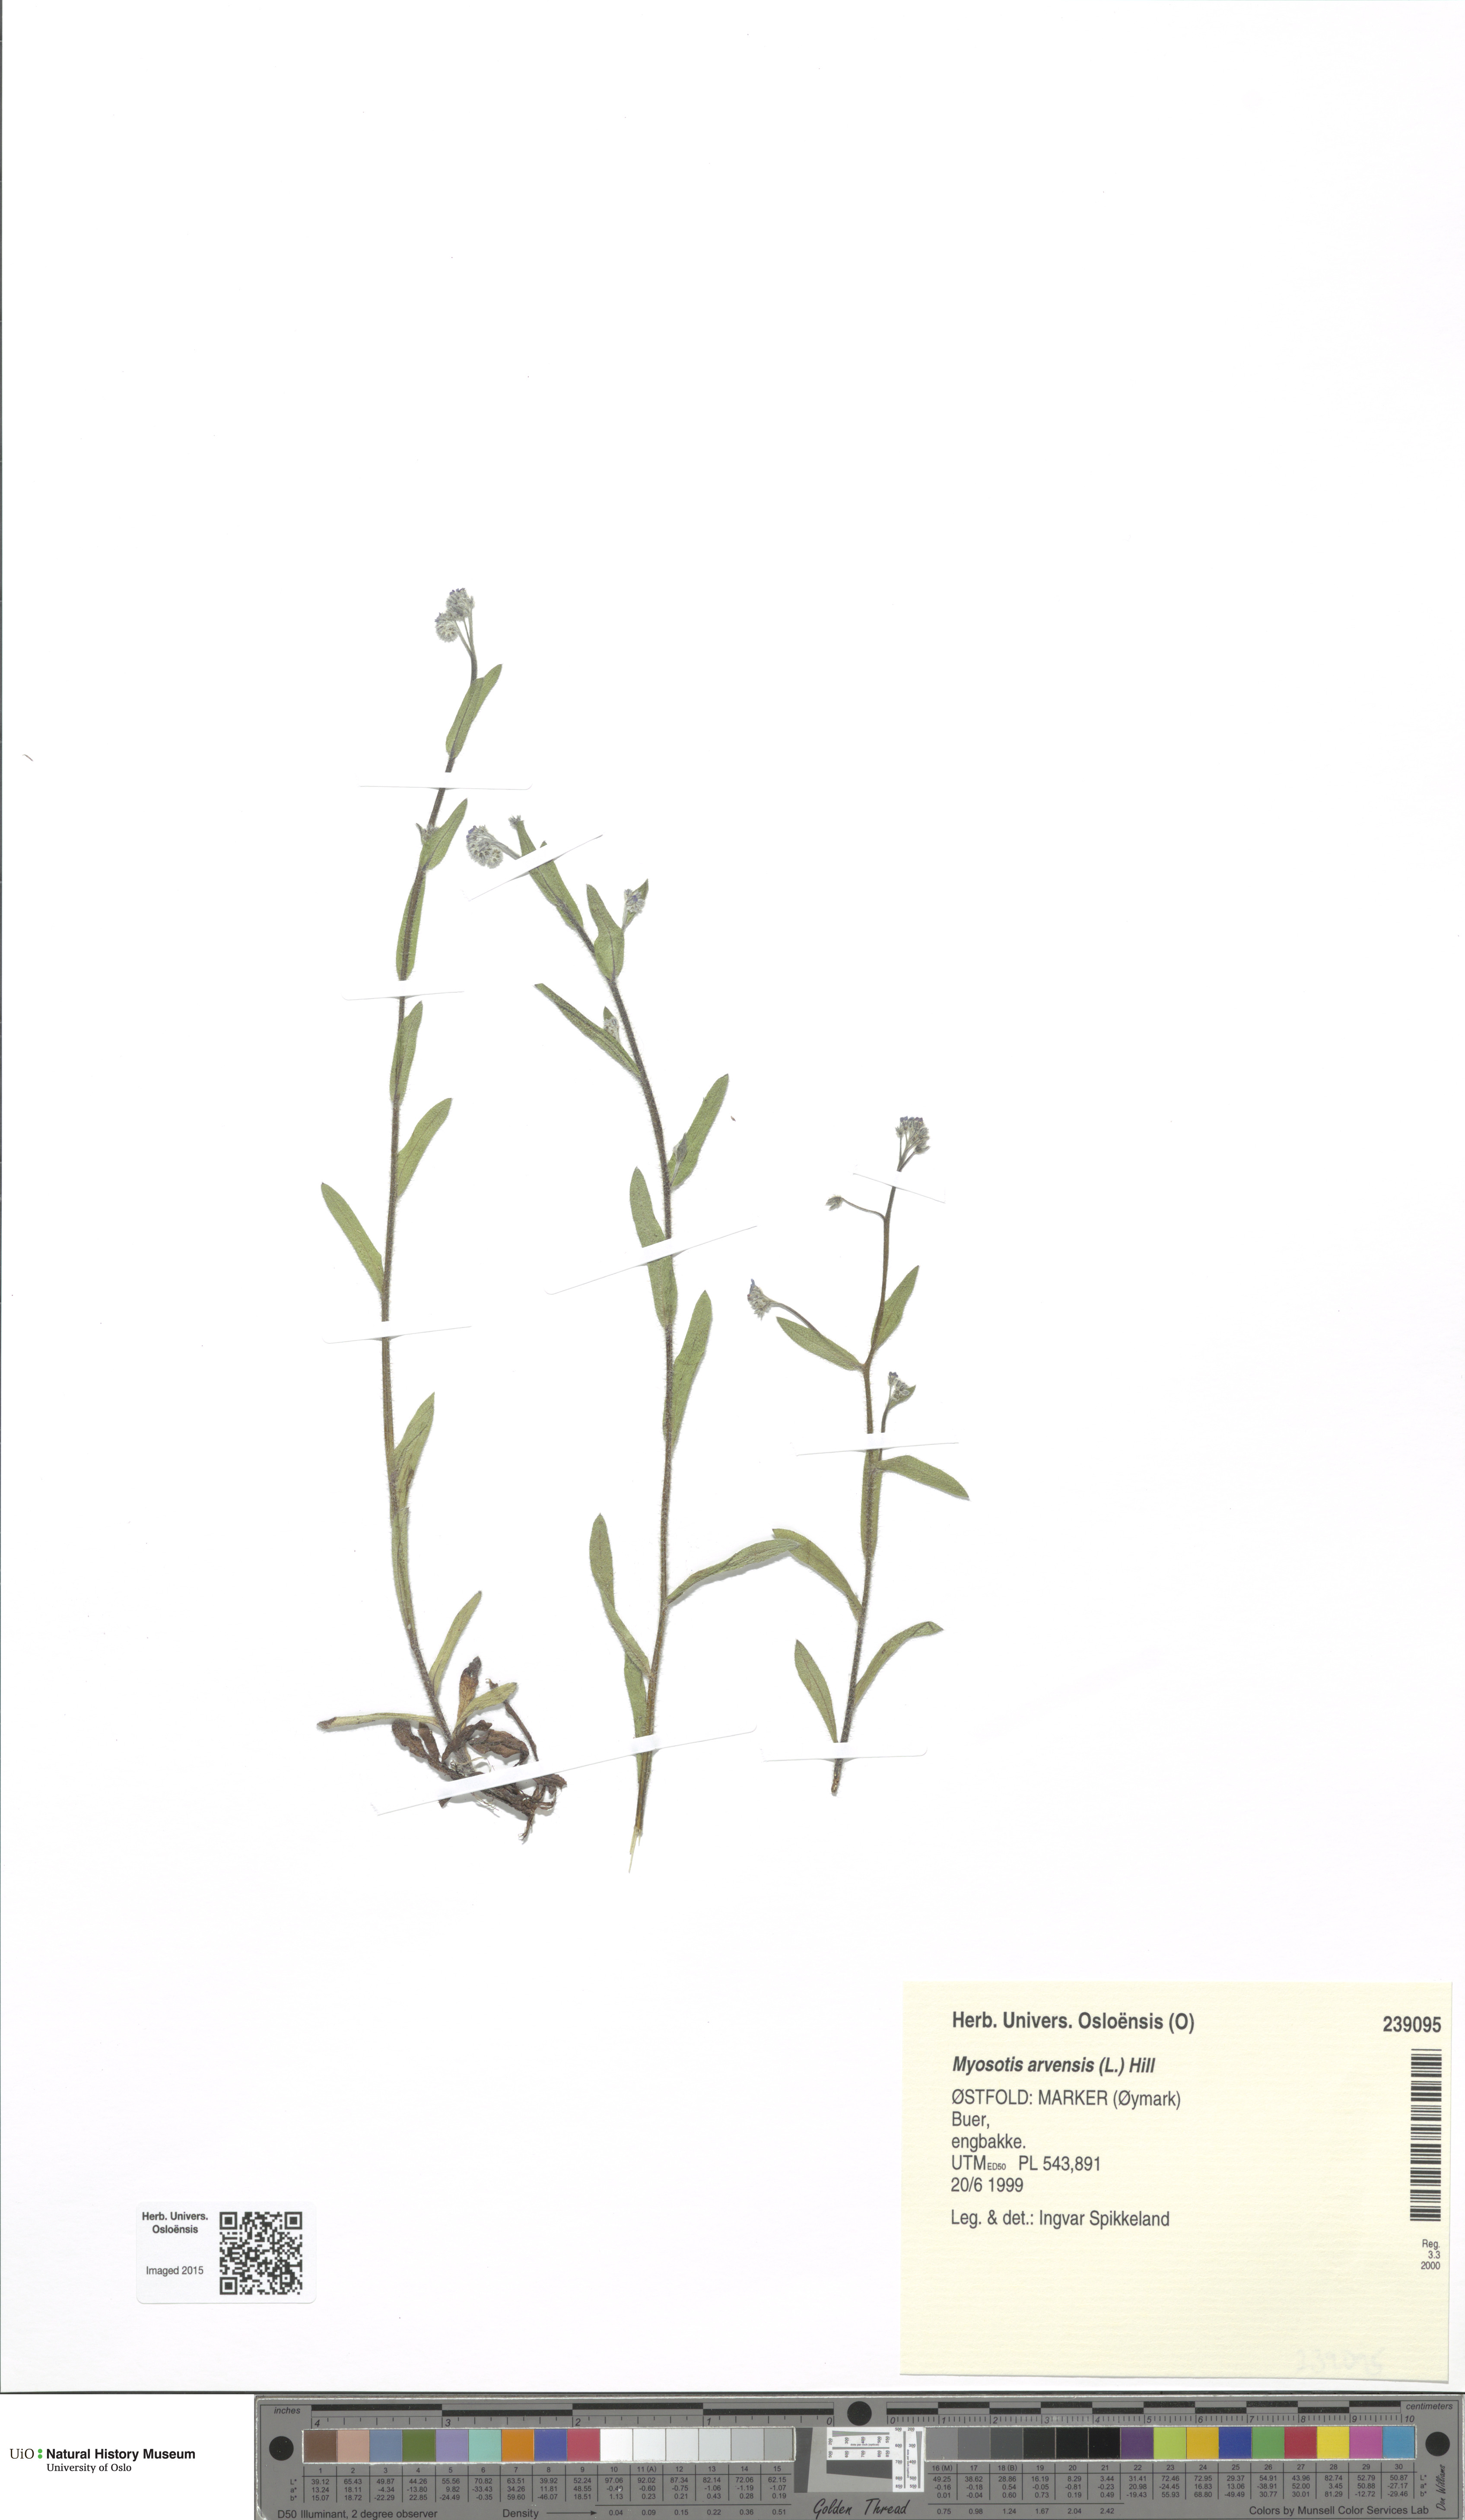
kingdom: Plantae
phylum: Tracheophyta
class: Magnoliopsida
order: Boraginales
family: Boraginaceae
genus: Myosotis
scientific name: Myosotis arvensis
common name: Field forget-me-not
